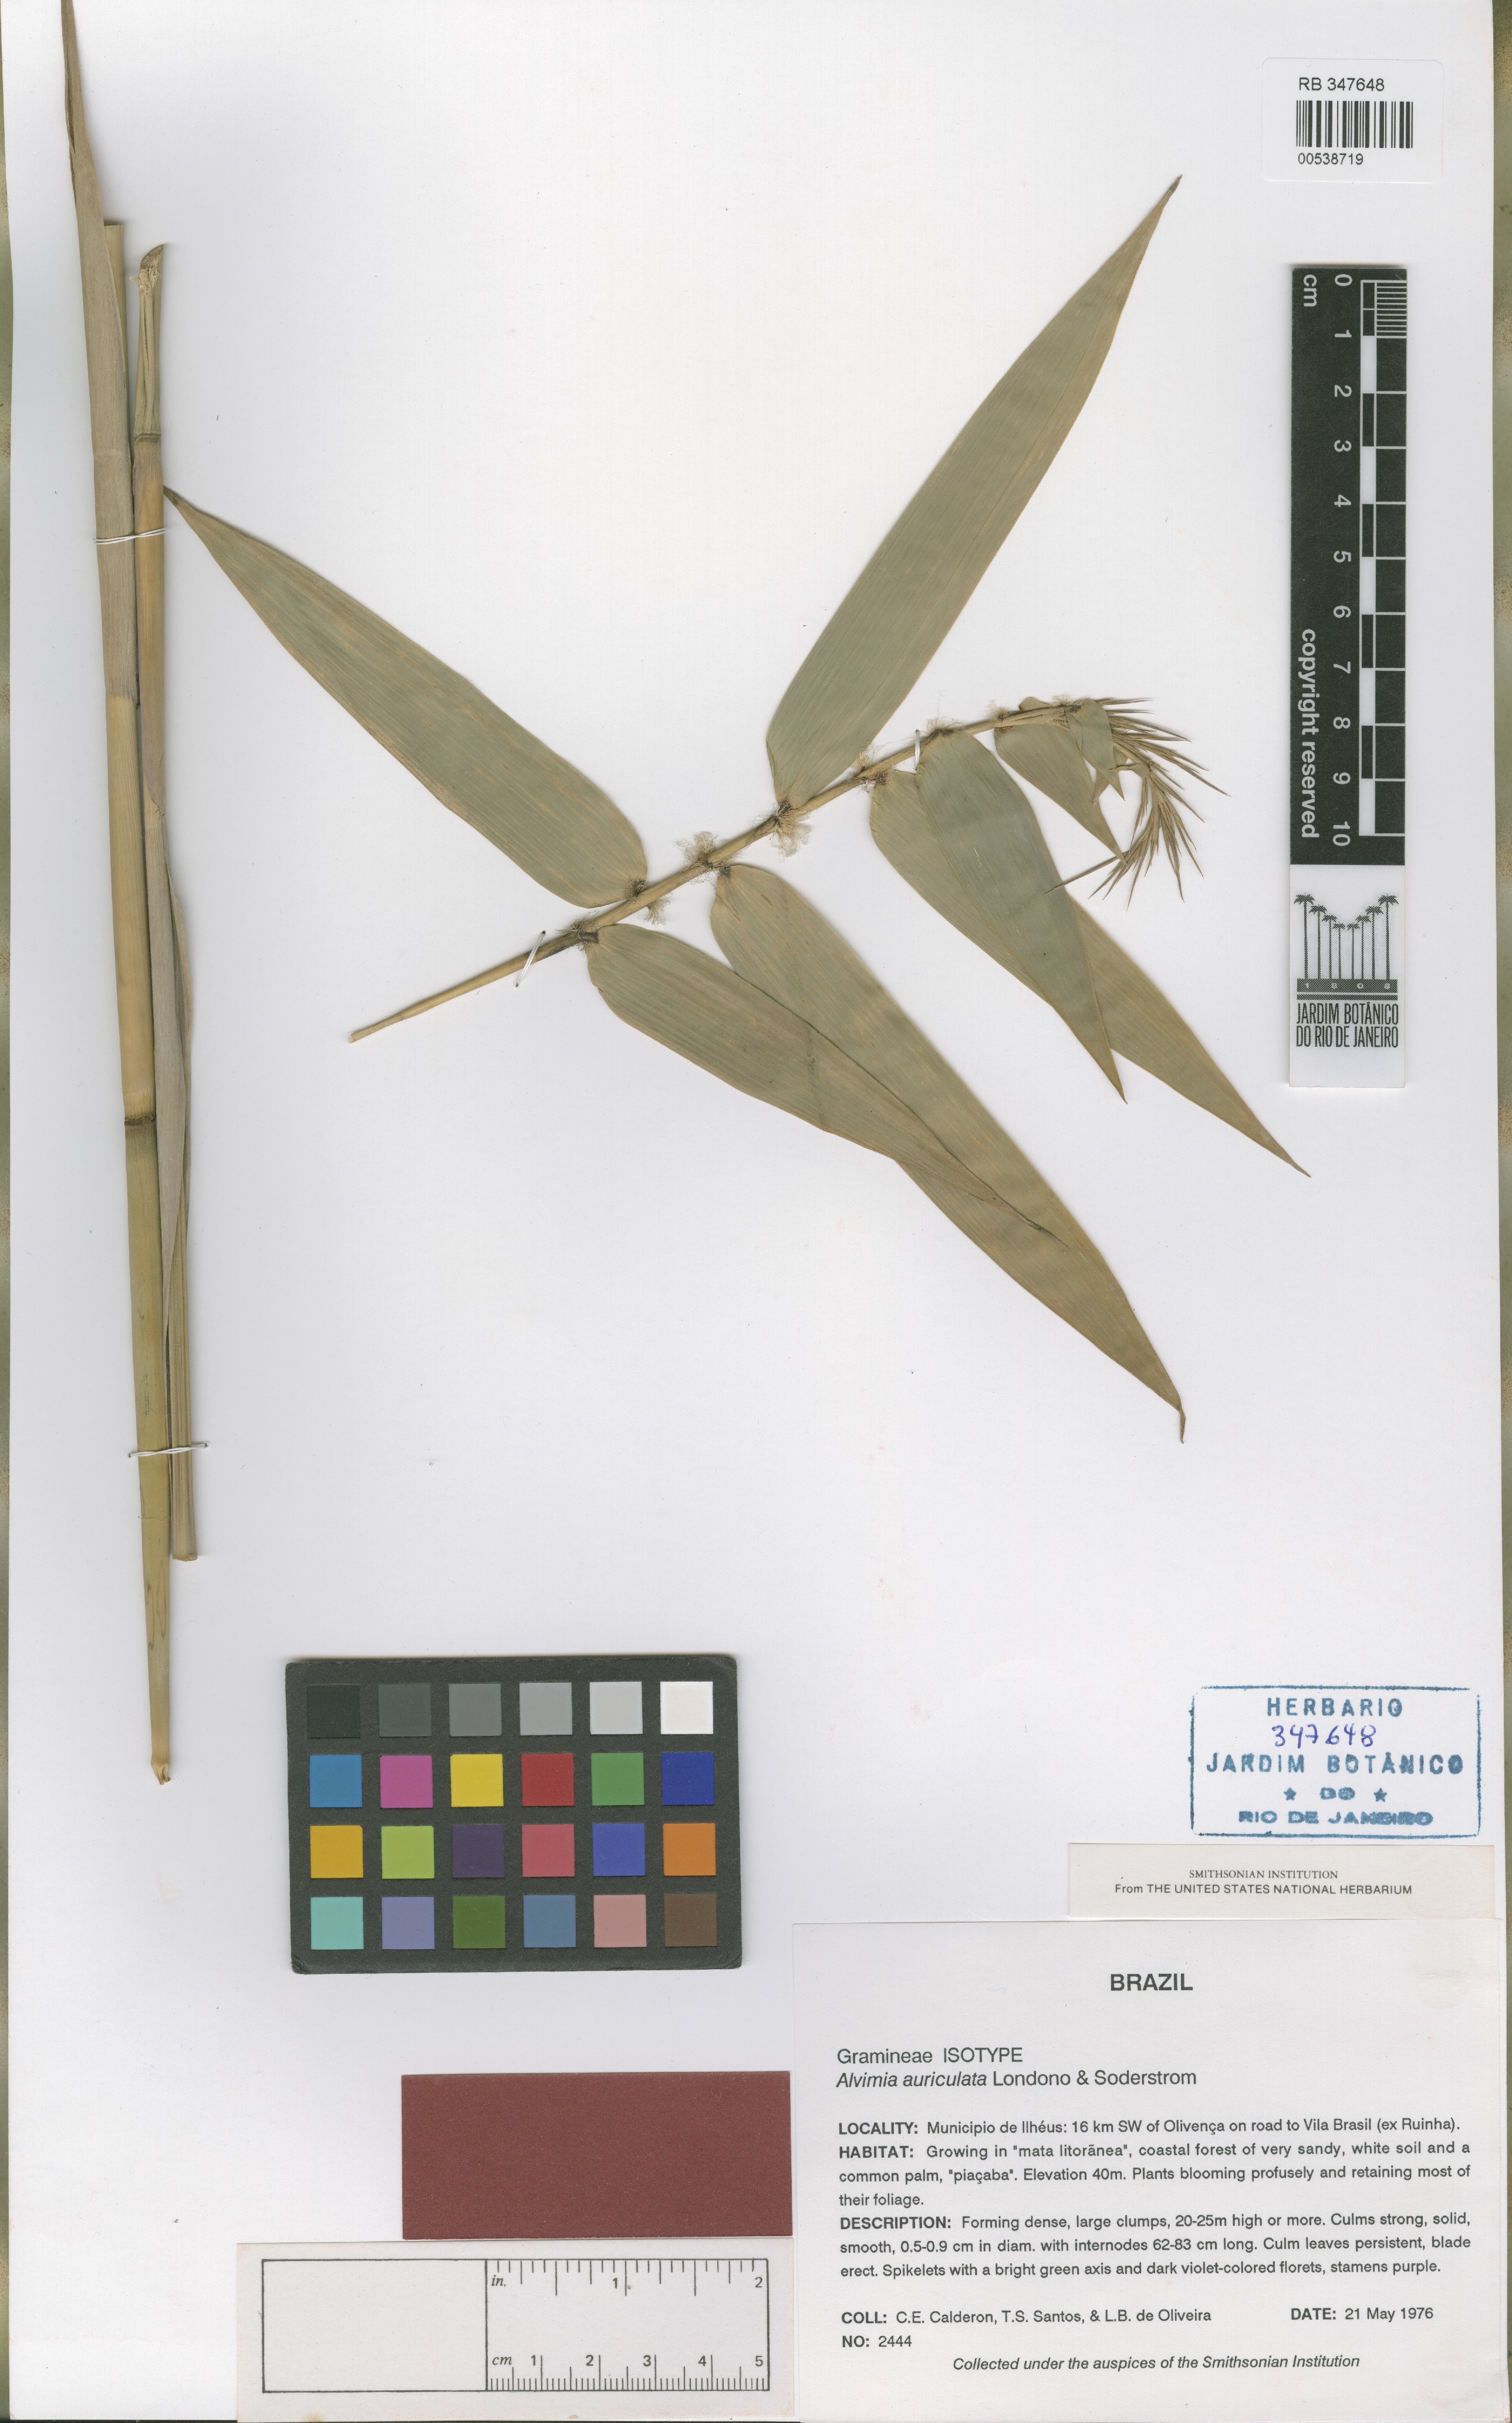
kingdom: Plantae
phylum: Tracheophyta
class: Liliopsida
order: Poales
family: Poaceae
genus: Alvimia
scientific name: Alvimia auriculata
